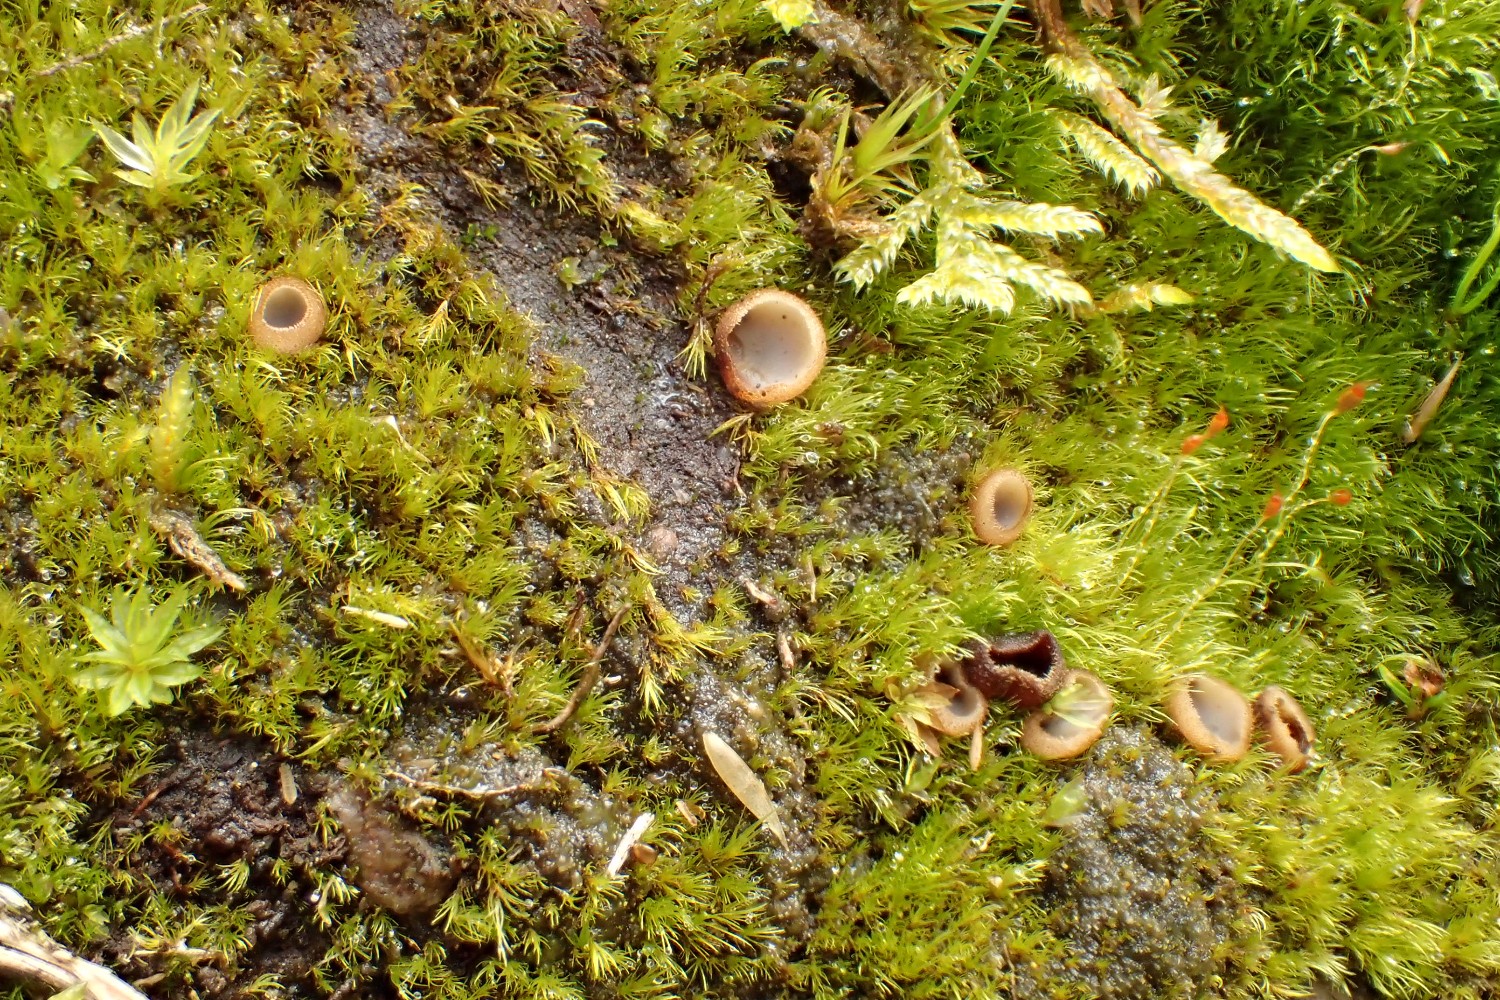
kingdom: Fungi
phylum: Ascomycota
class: Pezizomycetes
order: Pezizales
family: Pyronemataceae
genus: Trichophaea
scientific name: Trichophaea
